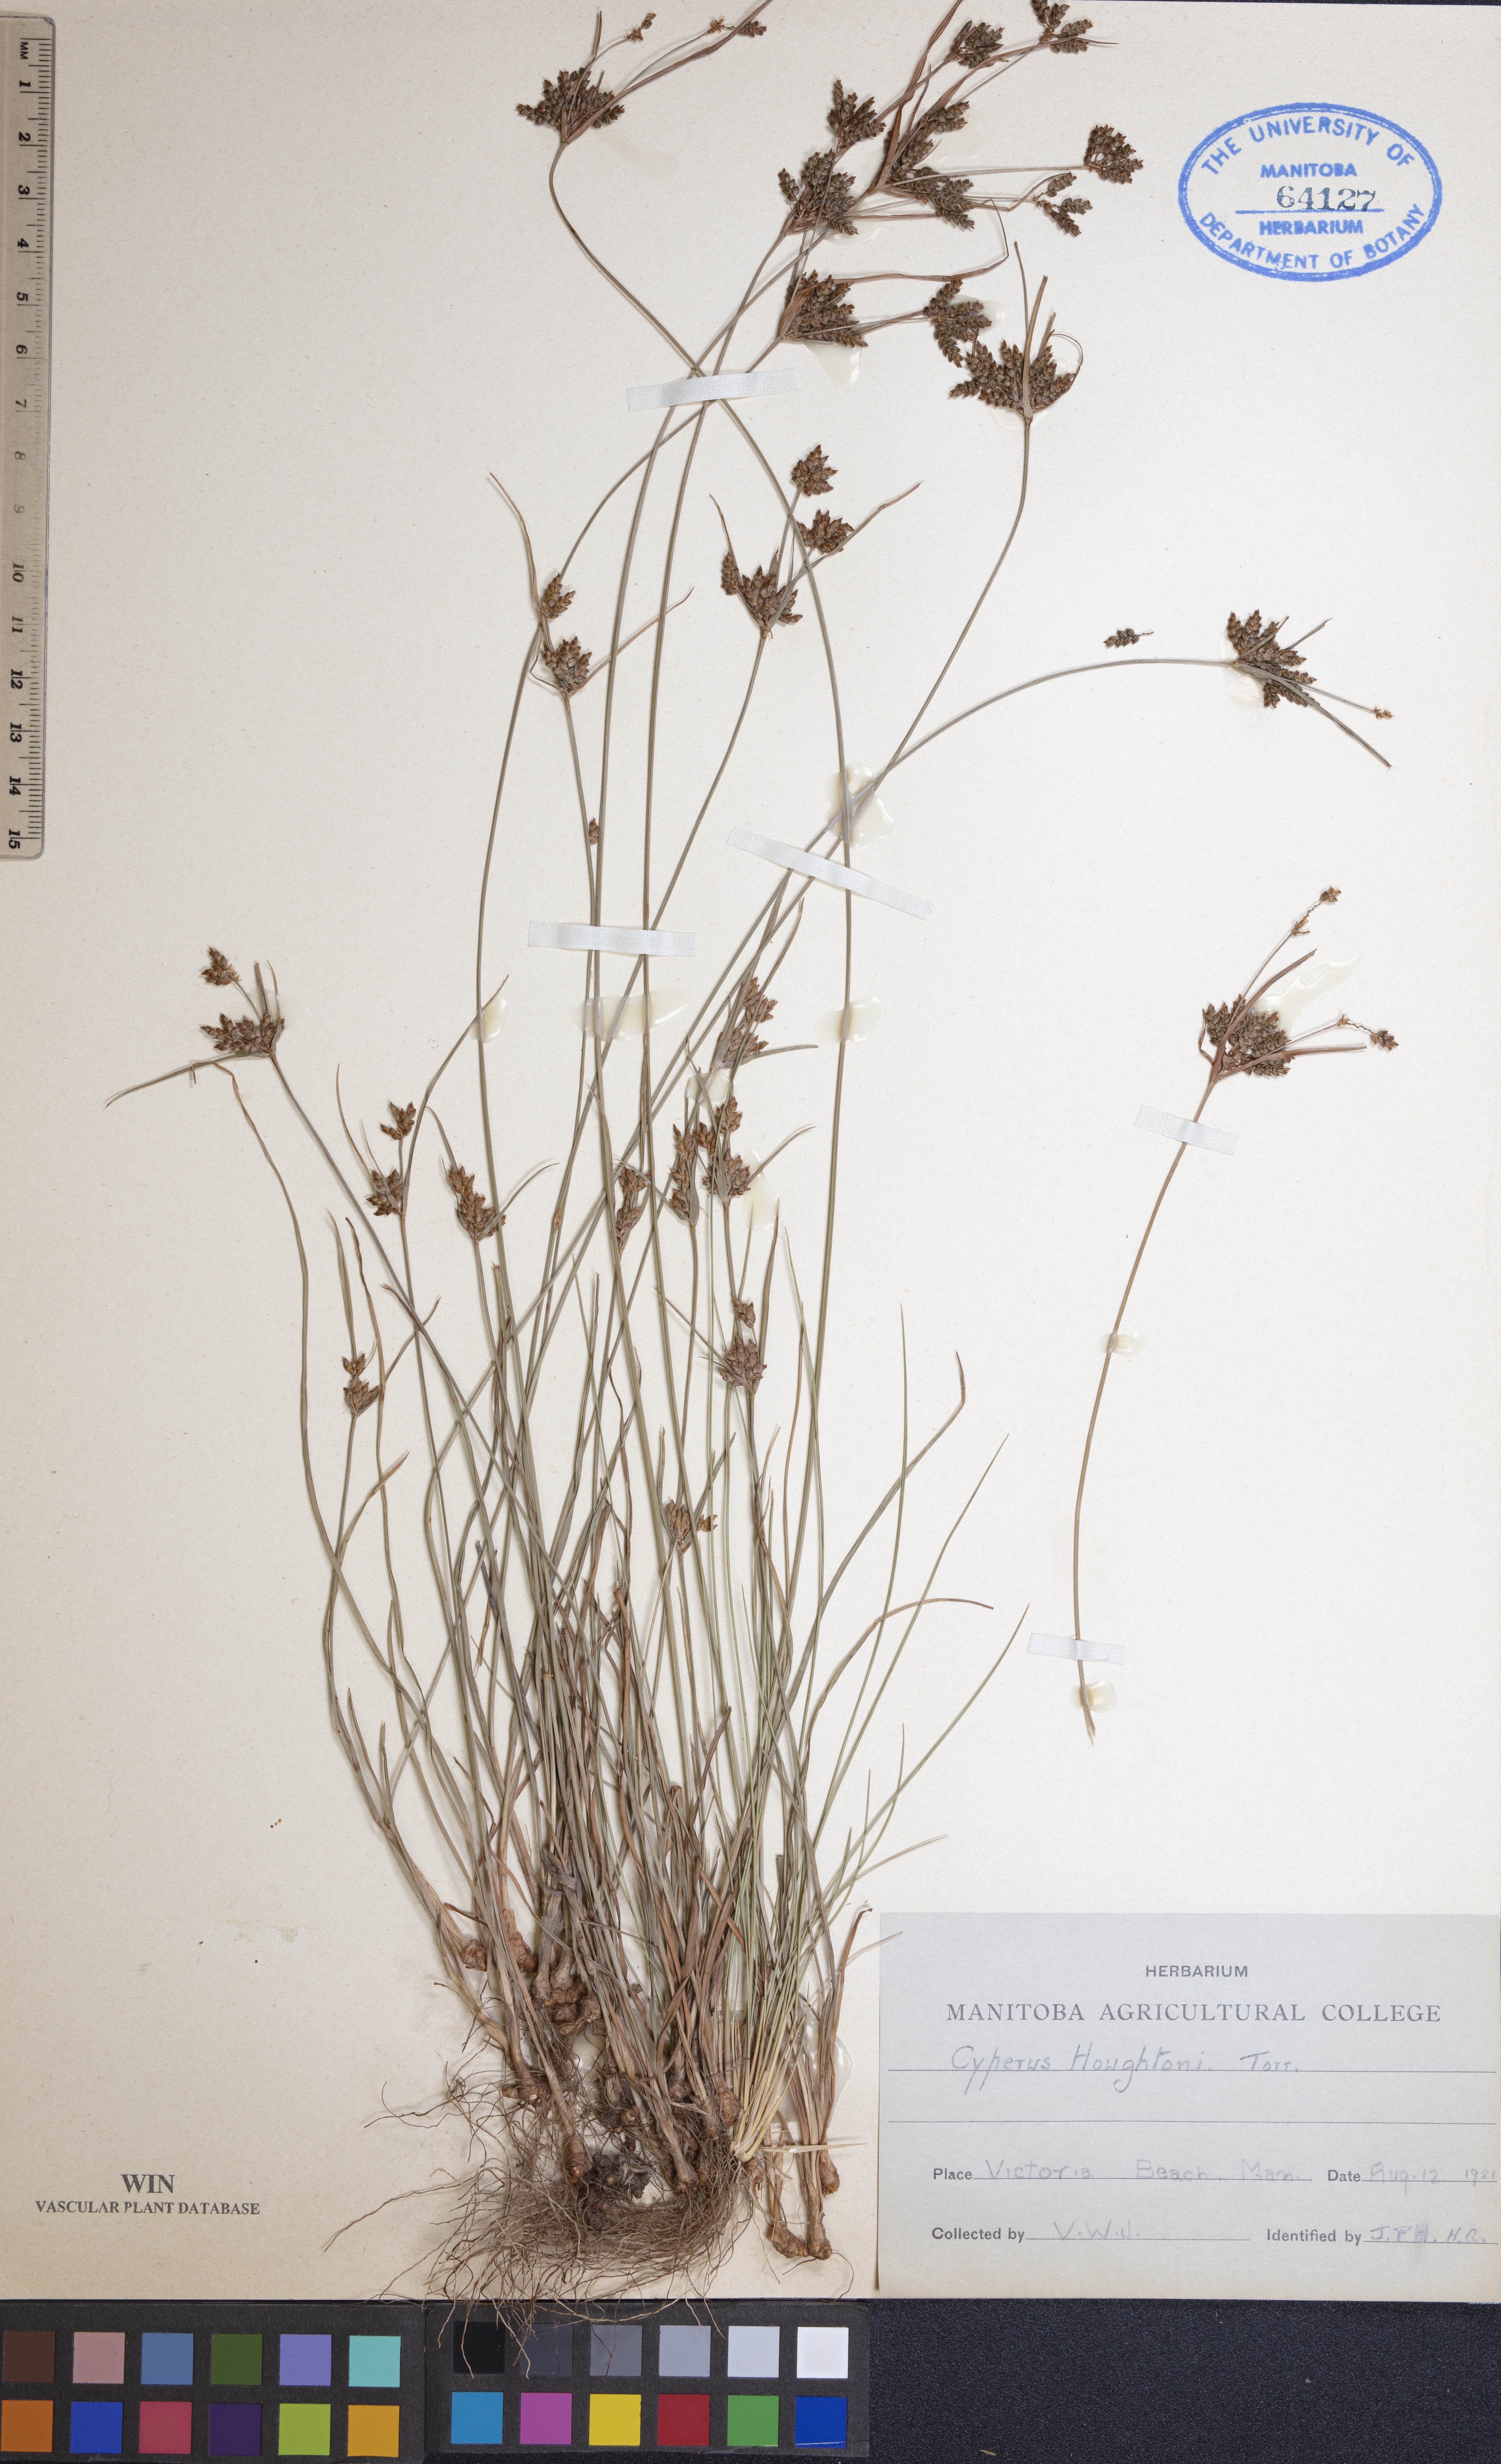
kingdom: Plantae
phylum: Tracheophyta
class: Liliopsida
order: Poales
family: Cyperaceae
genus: Cyperus
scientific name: Cyperus houghtonii
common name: Houghton's cyperus
